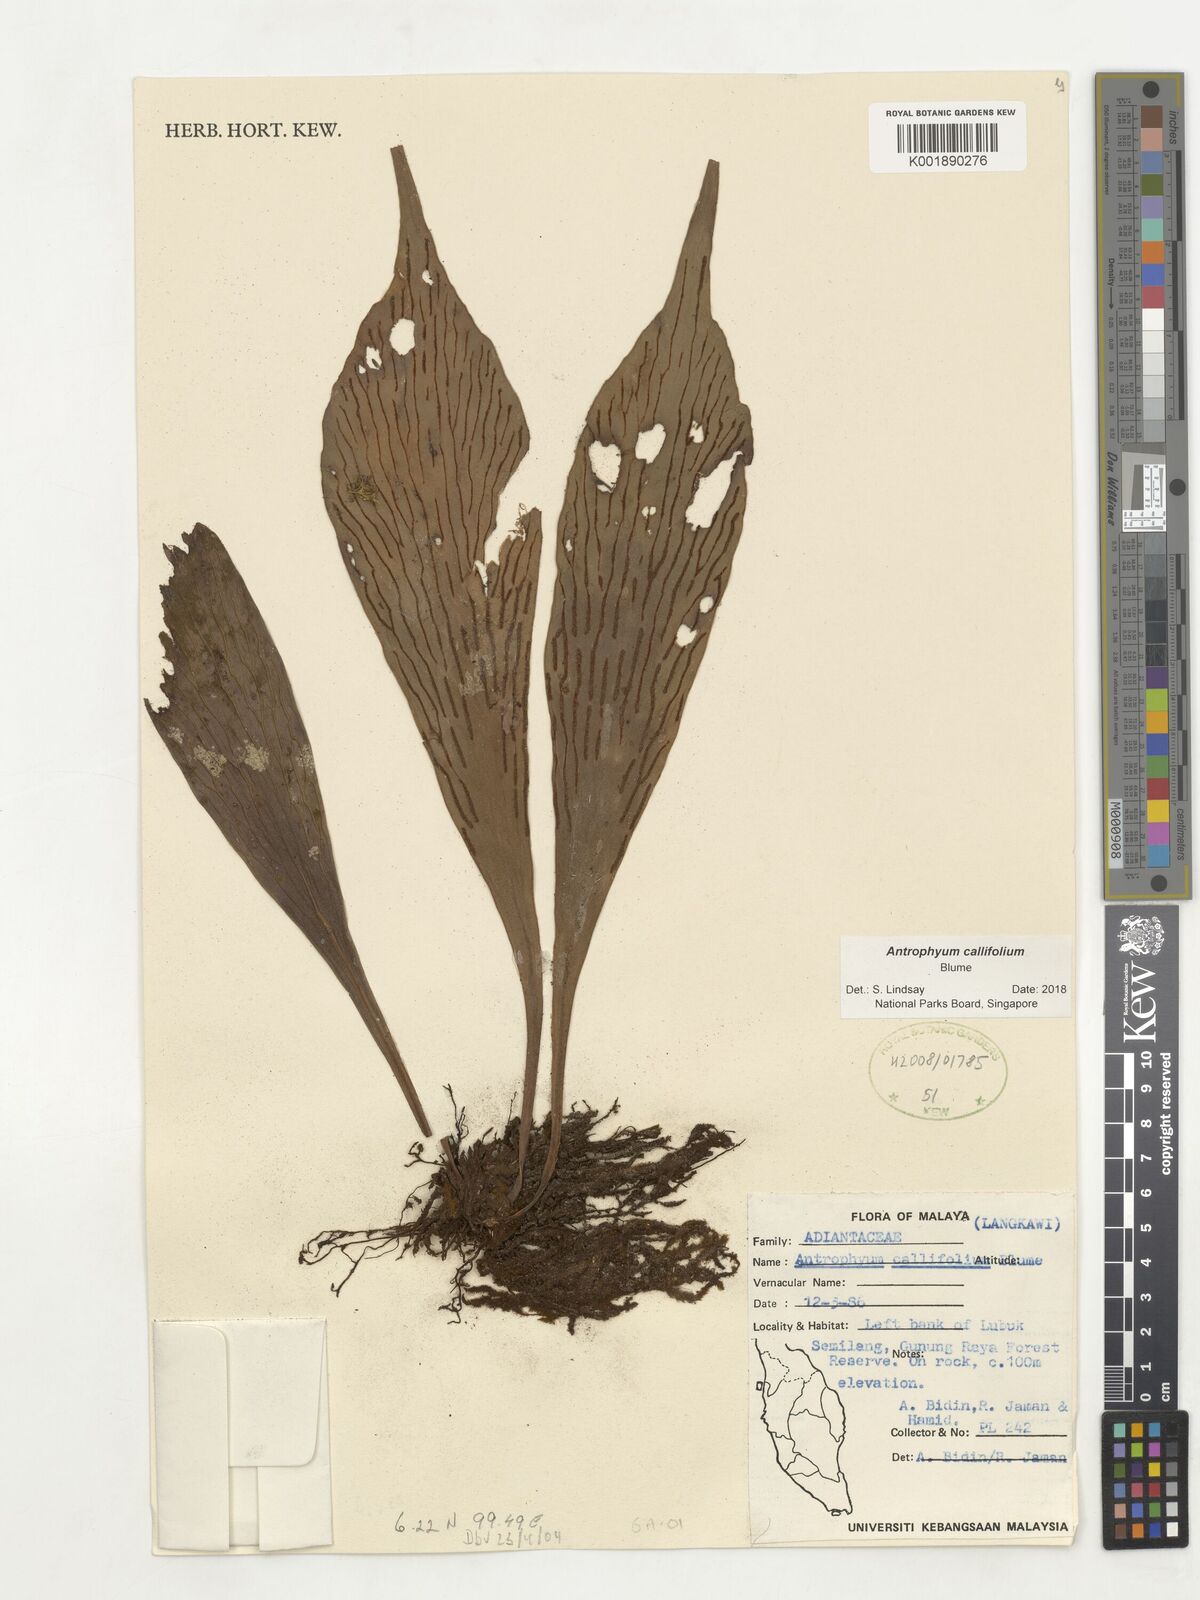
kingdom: Plantae
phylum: Tracheophyta
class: Polypodiopsida
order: Polypodiales
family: Pteridaceae
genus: Antrophyum
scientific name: Antrophyum callifolium
